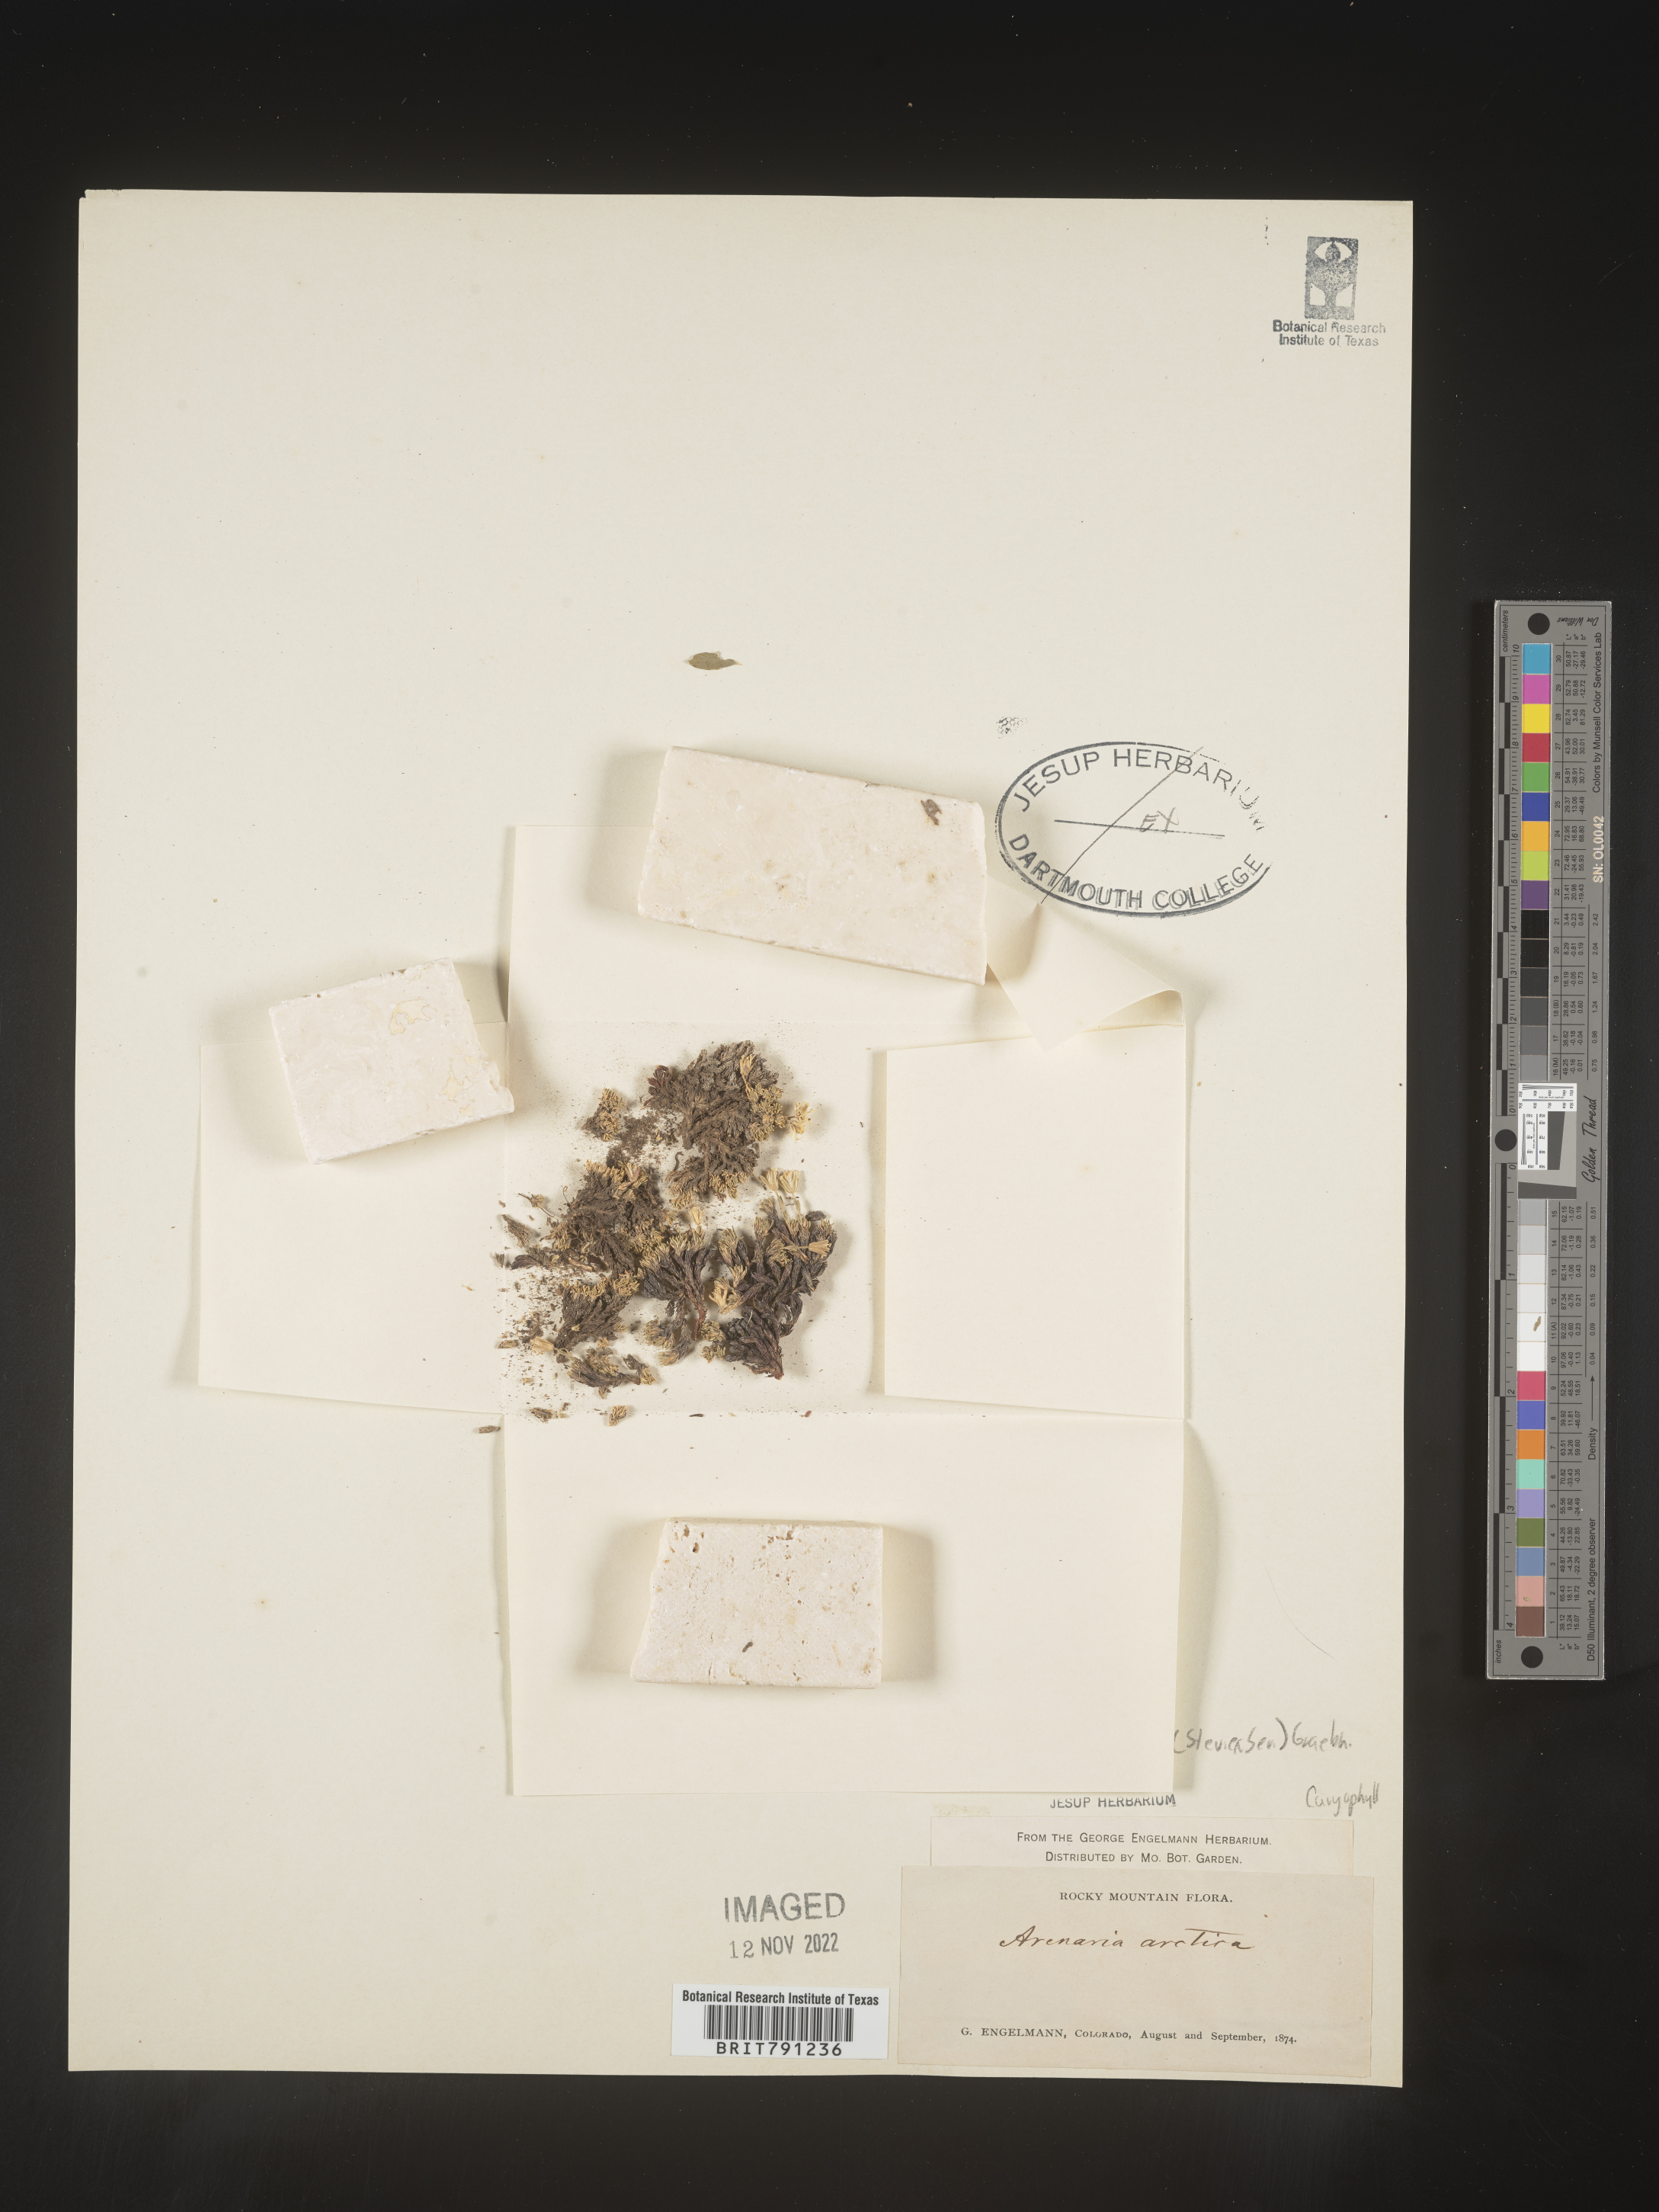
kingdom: Plantae
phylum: Tracheophyta
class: Magnoliopsida
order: Caryophyllales
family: Caryophyllaceae
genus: Minuartia
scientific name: Minuartia
